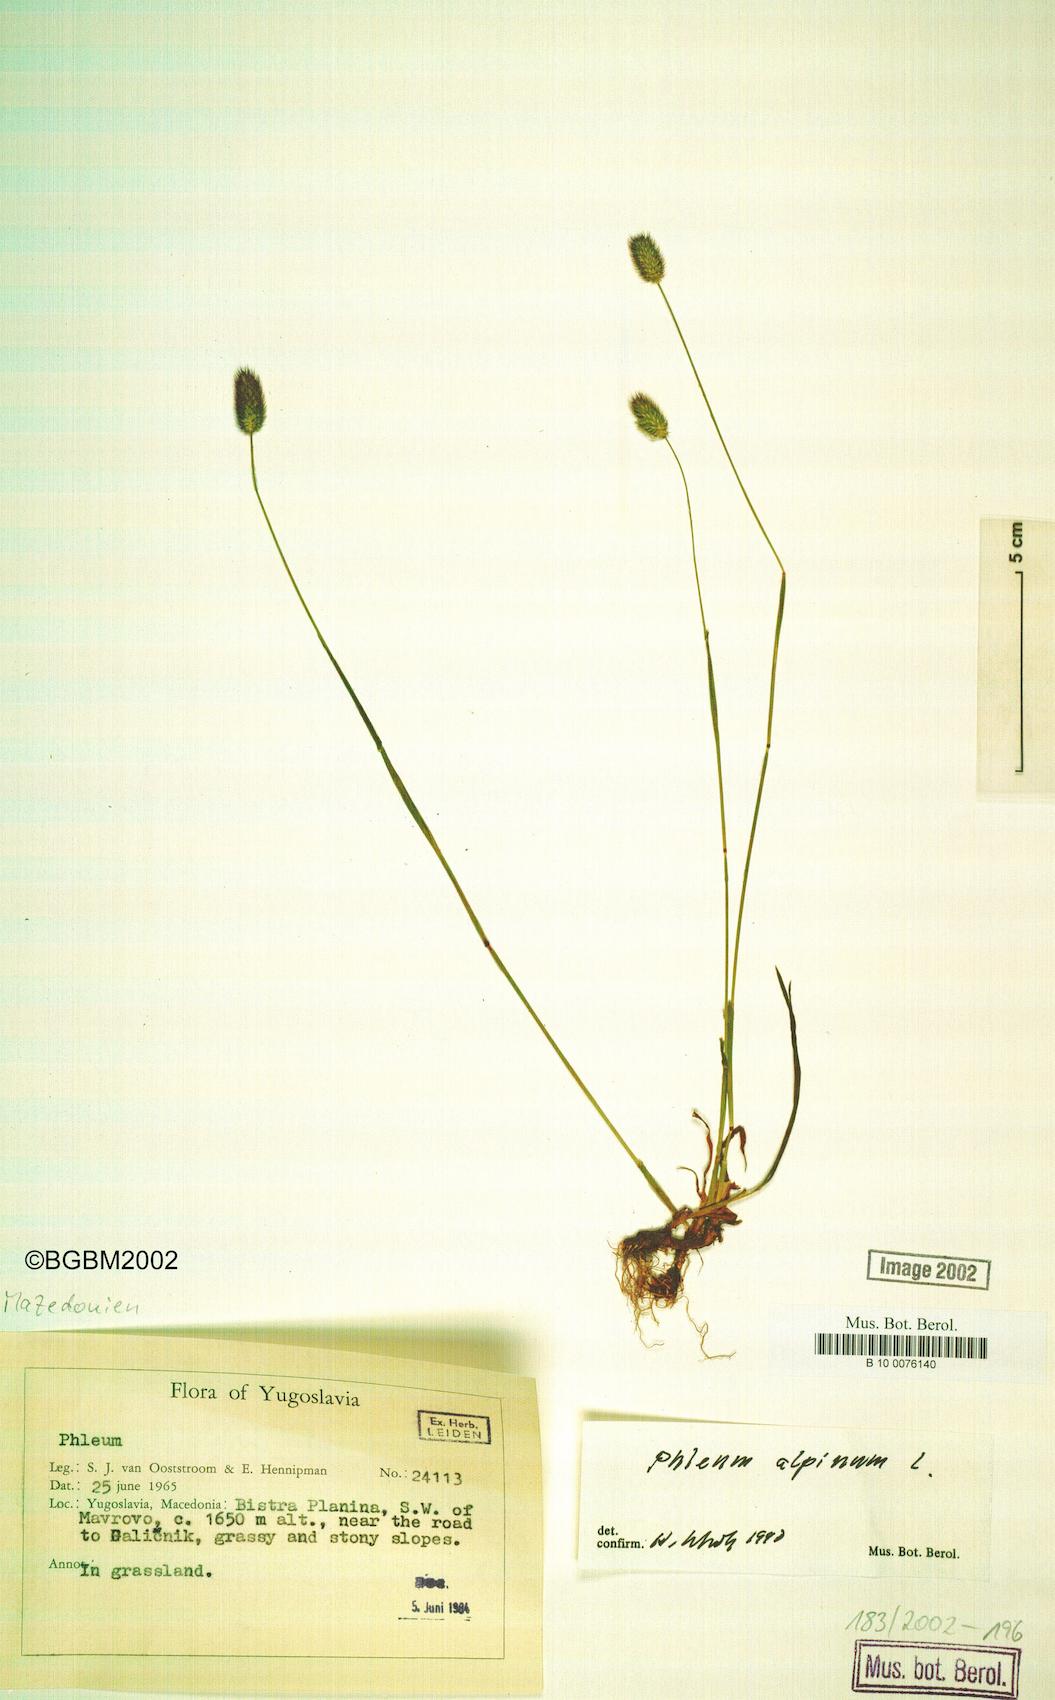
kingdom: Plantae
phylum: Tracheophyta
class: Liliopsida
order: Poales
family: Poaceae
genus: Phleum
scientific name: Phleum alpinum
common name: Alpine cat's-tail
